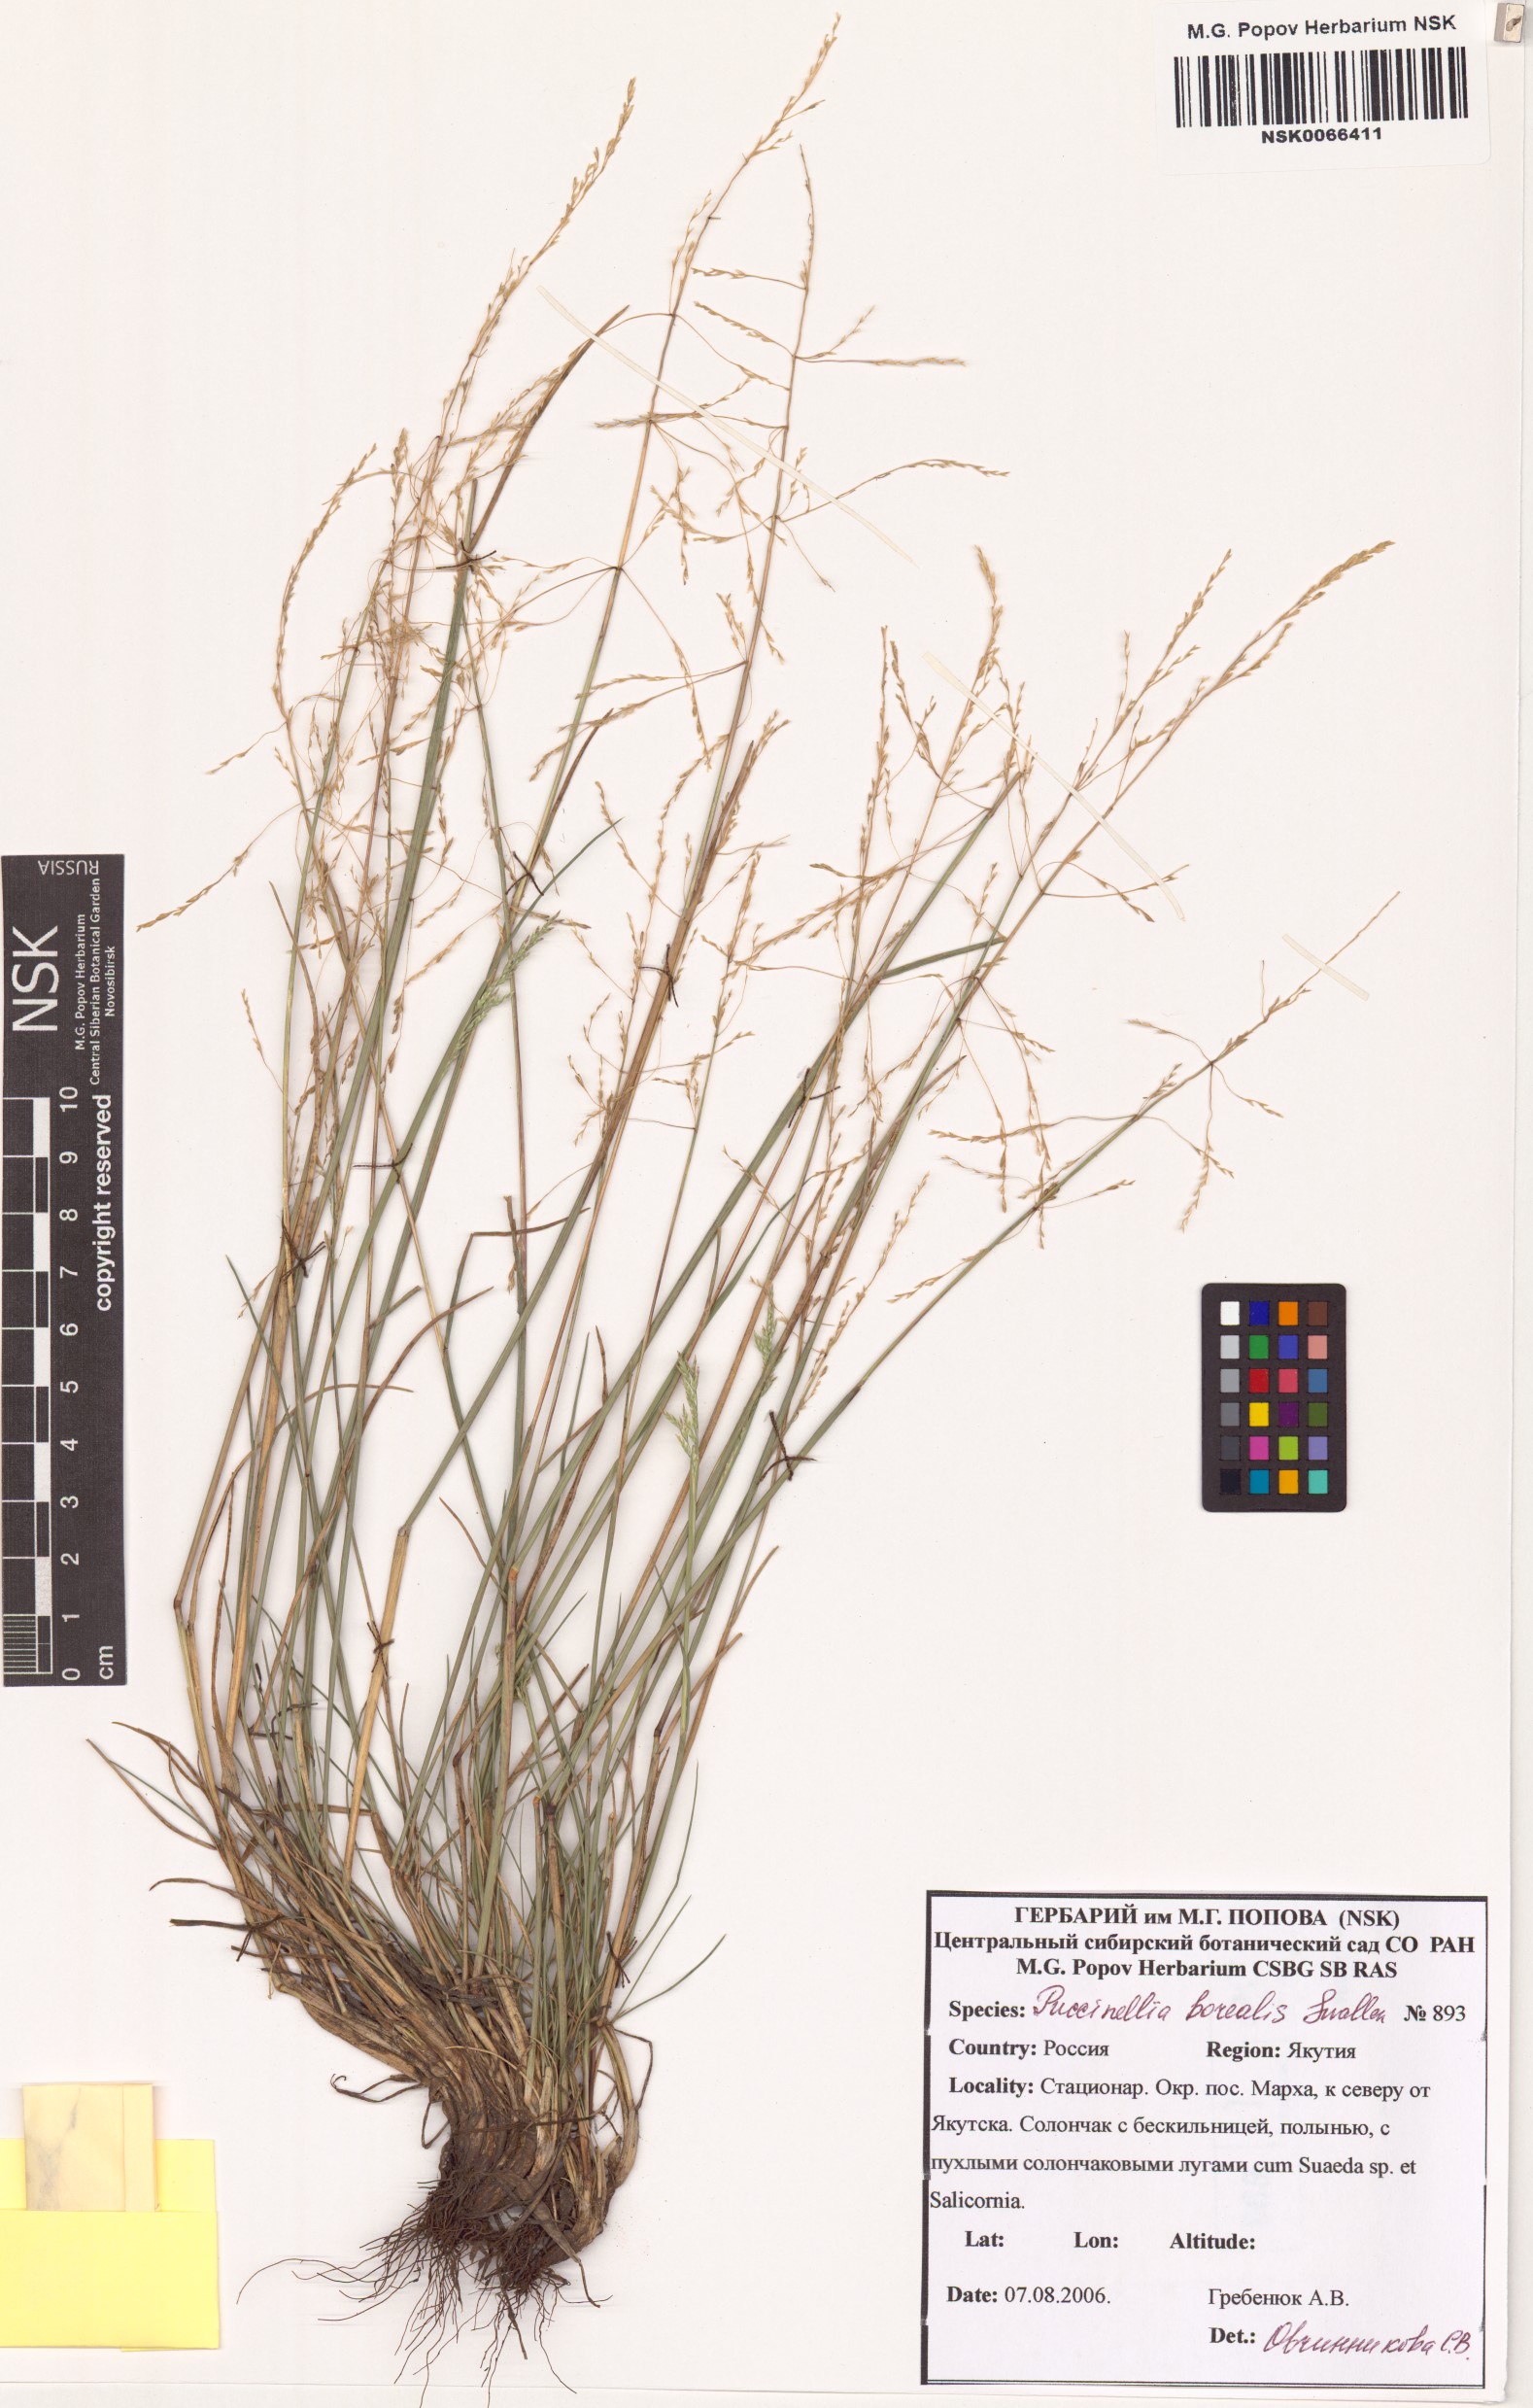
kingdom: Plantae
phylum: Tracheophyta
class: Liliopsida
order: Poales
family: Poaceae
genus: Puccinellia
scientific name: Puccinellia nuttalliana
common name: Nuttall's alkali grass
